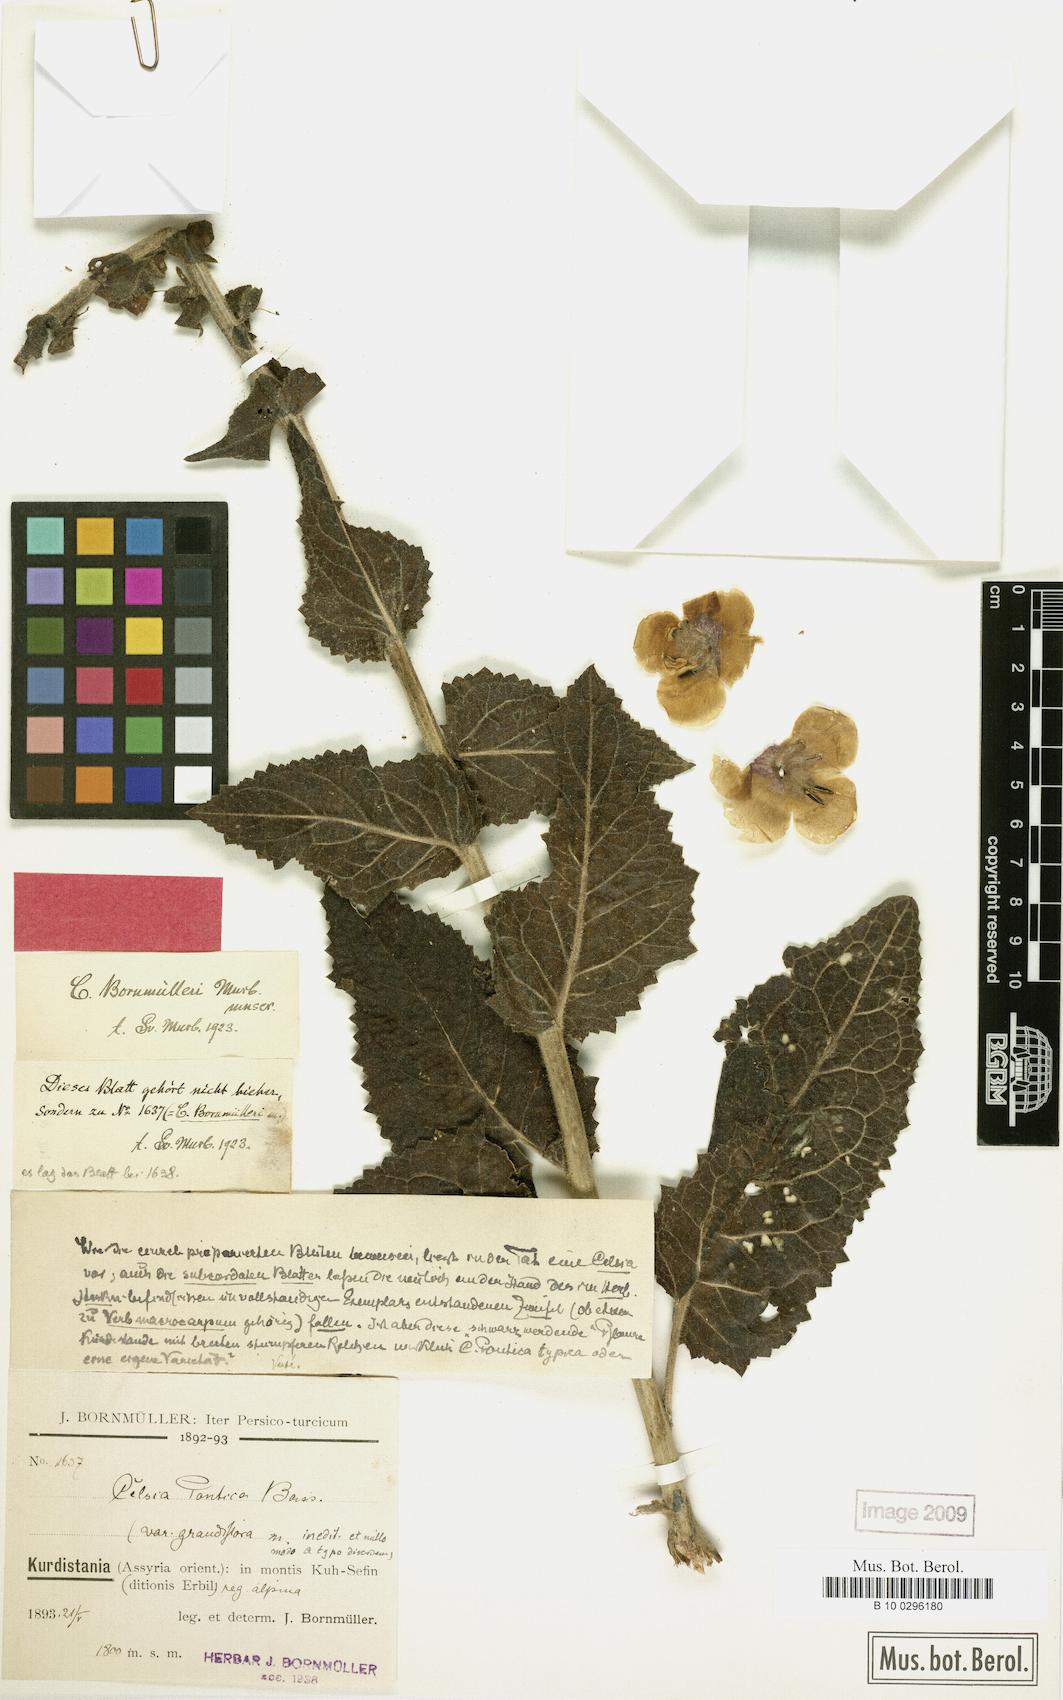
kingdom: Plantae
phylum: Tracheophyta
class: Magnoliopsida
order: Lamiales
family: Scrophulariaceae
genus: Verbascum
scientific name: Verbascum bornmuellerianum
